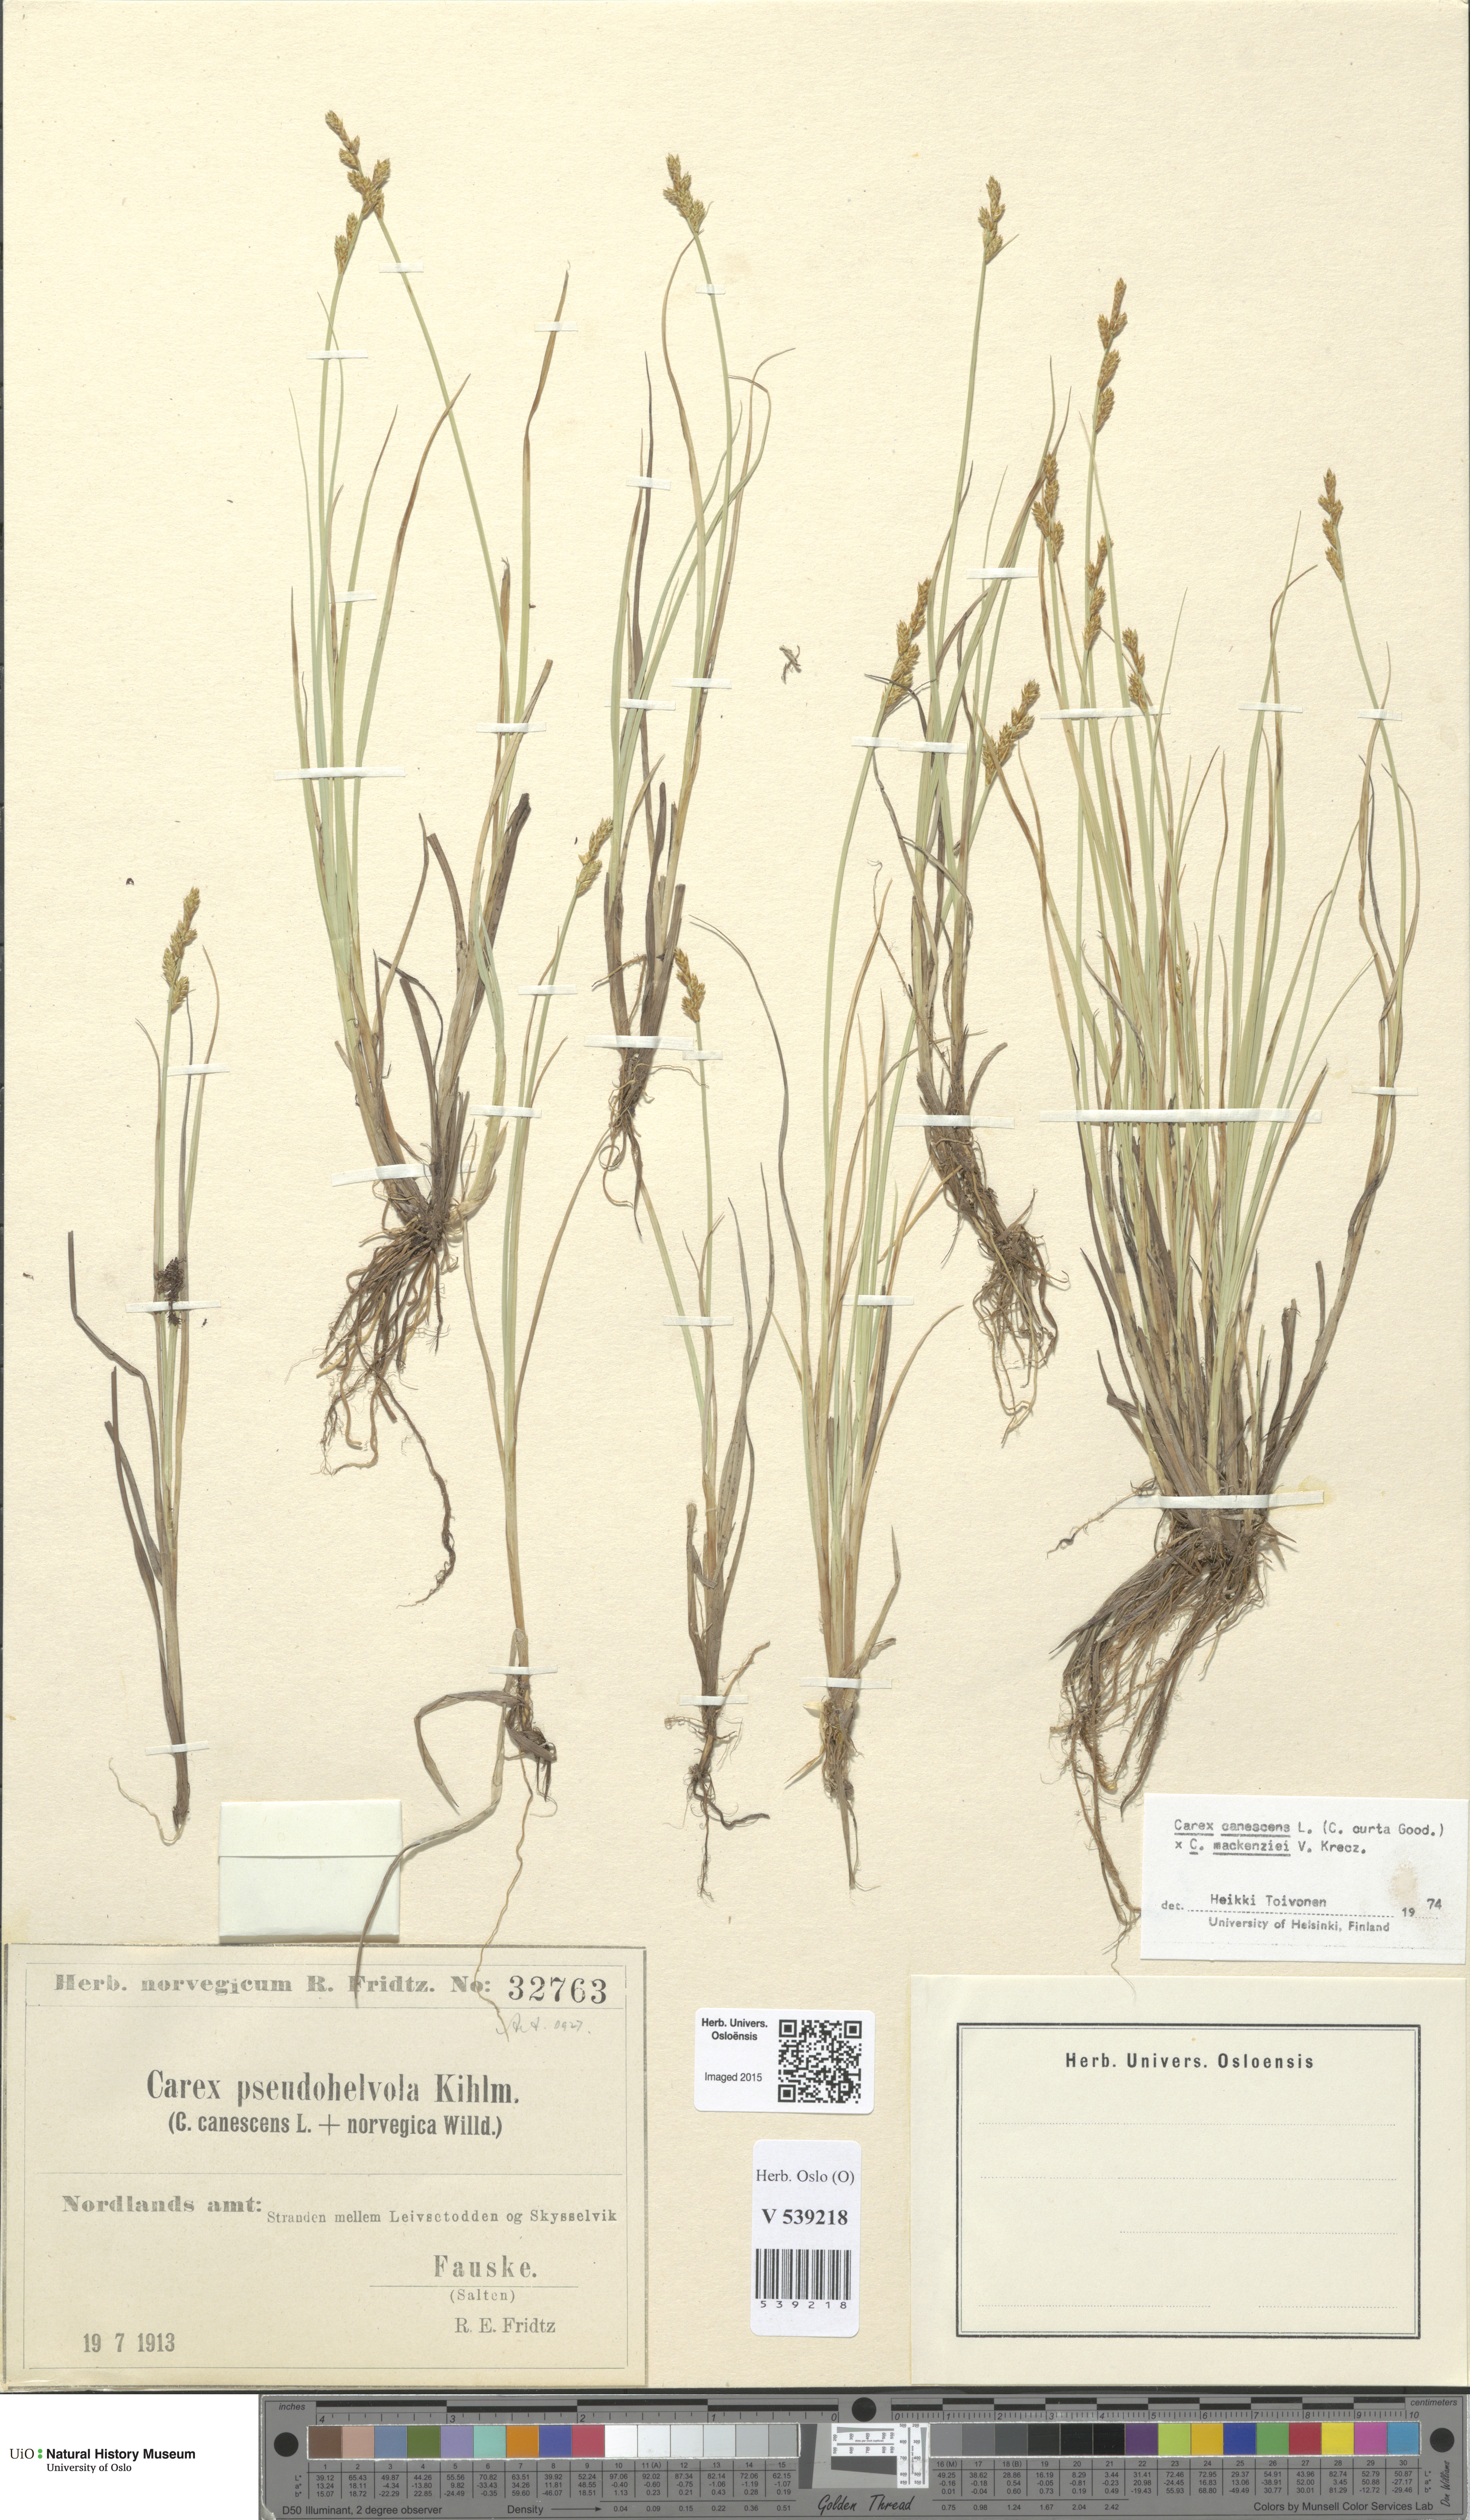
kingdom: Plantae
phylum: Tracheophyta
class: Liliopsida
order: Poales
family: Cyperaceae
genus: Carex
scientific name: Carex
